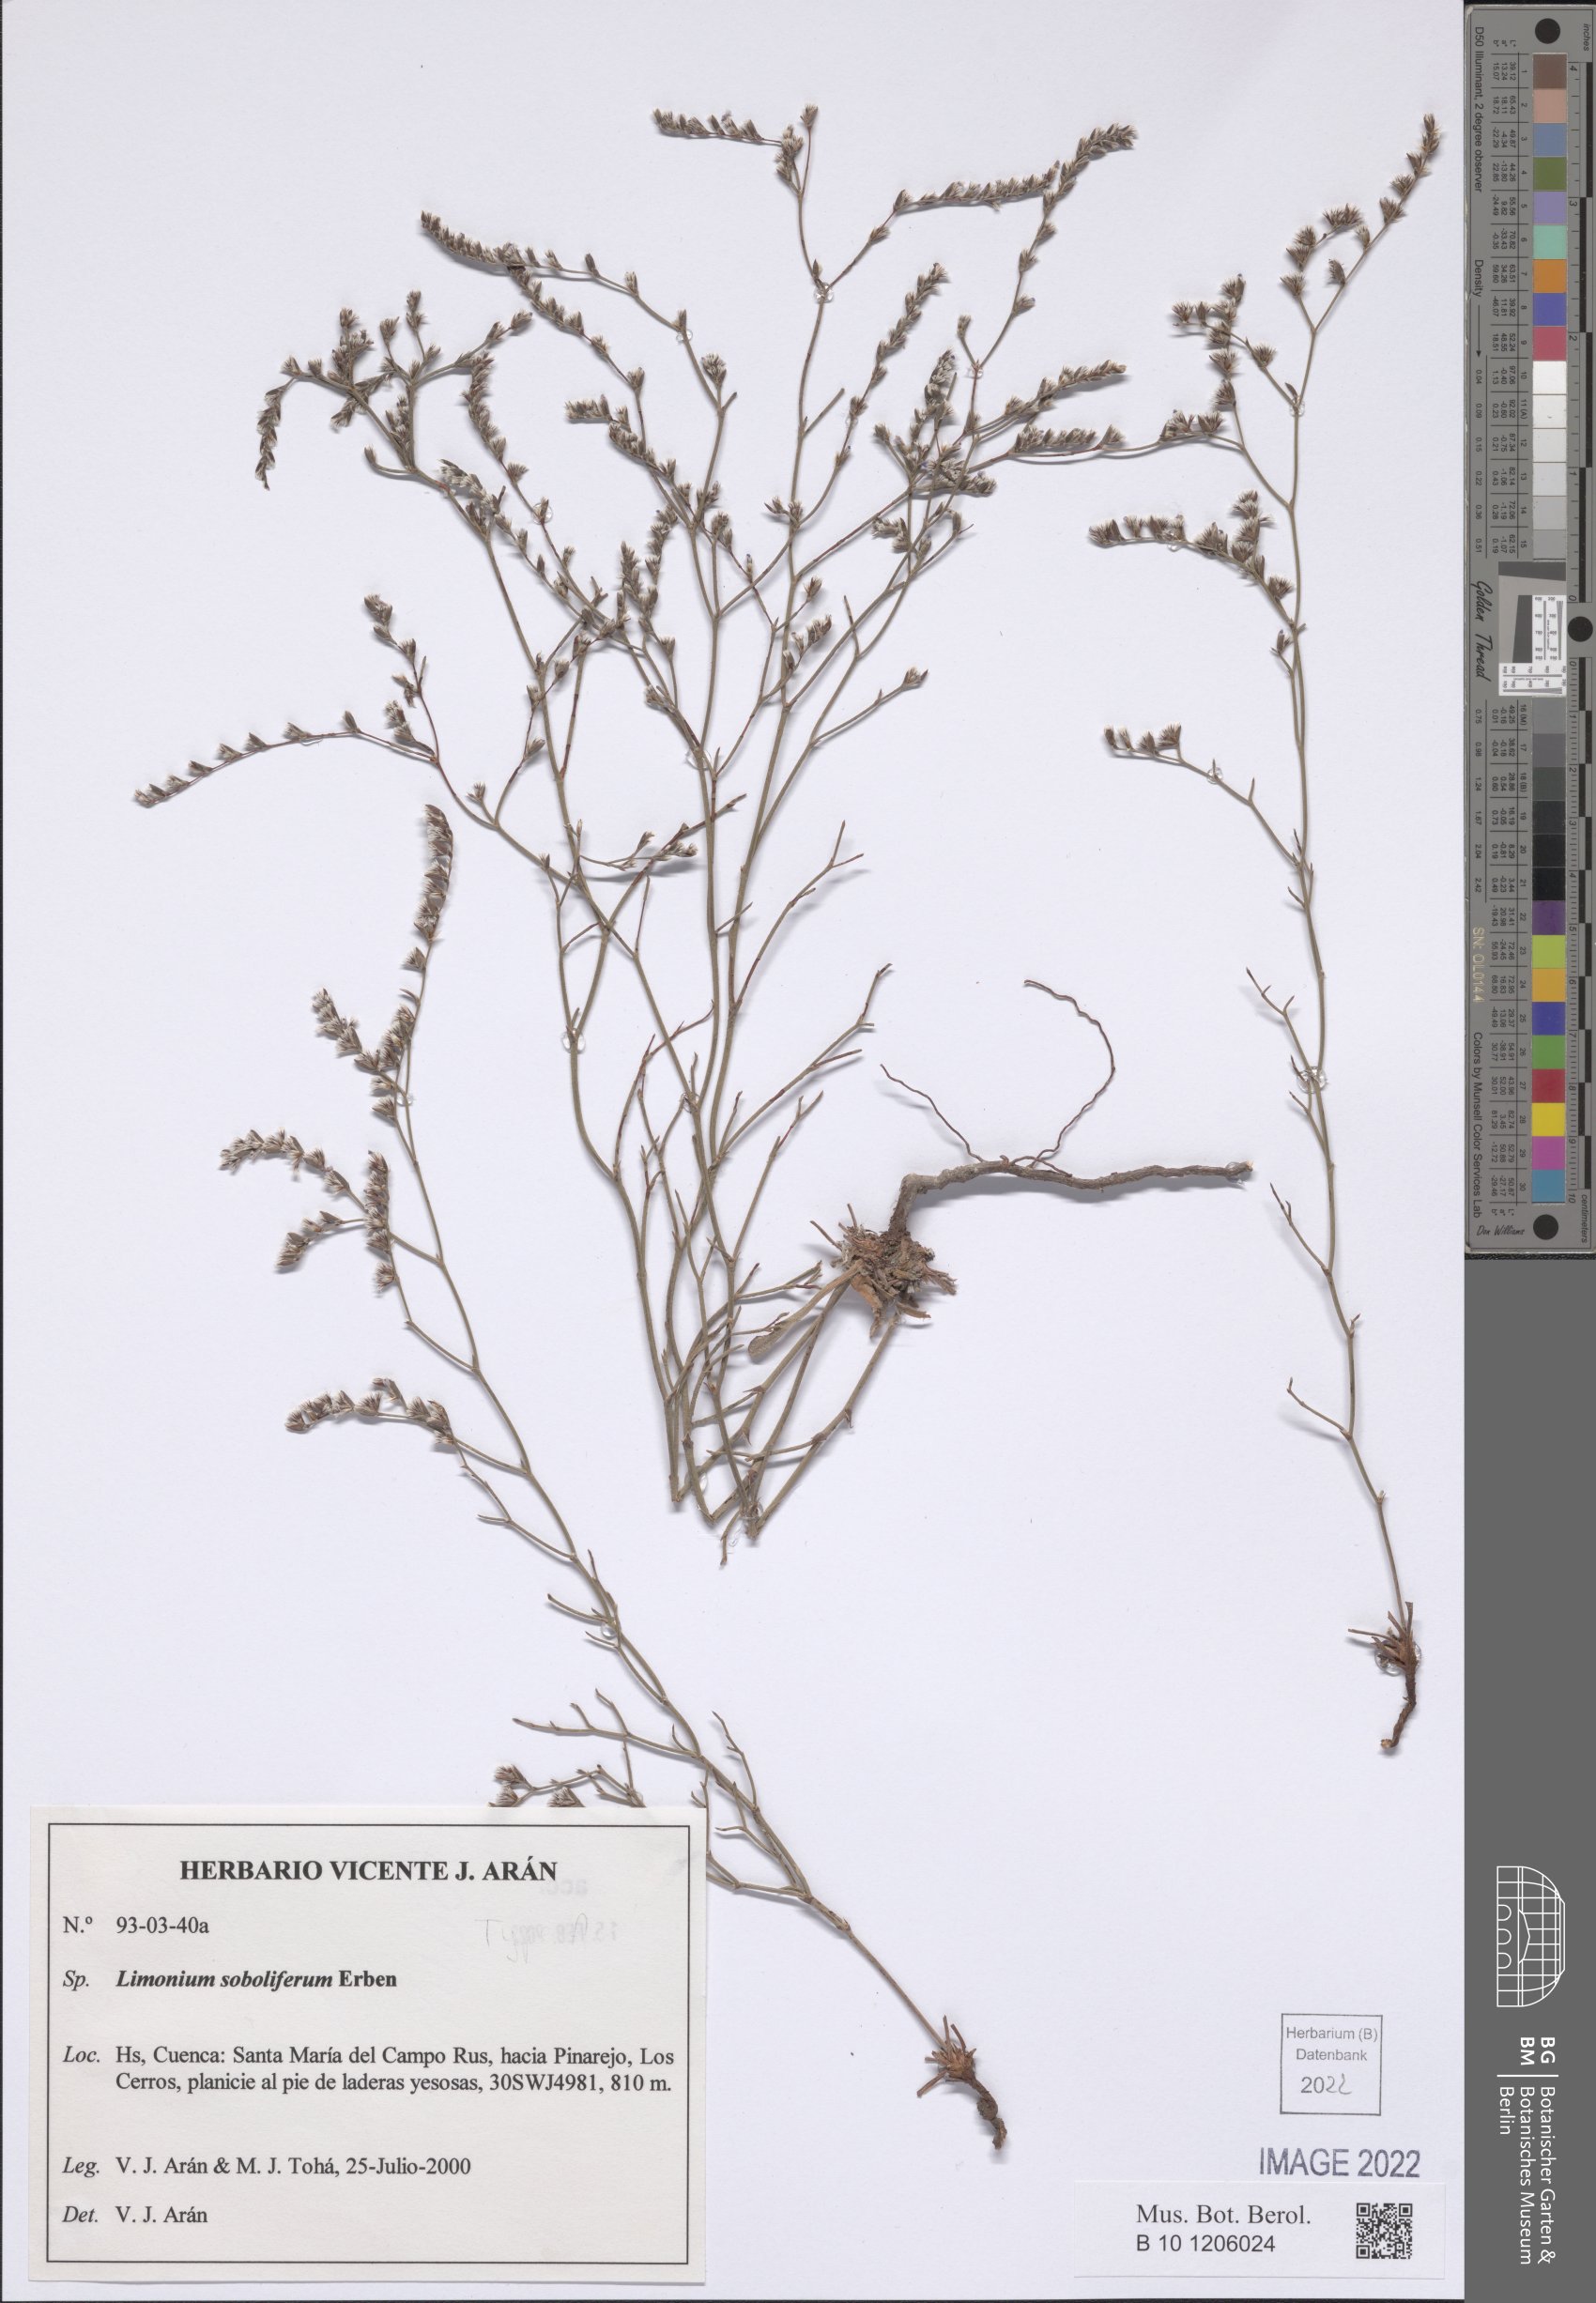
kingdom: Plantae
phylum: Tracheophyta
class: Magnoliopsida
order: Caryophyllales
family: Plumbaginaceae
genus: Limonium
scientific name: Limonium soboliferum
